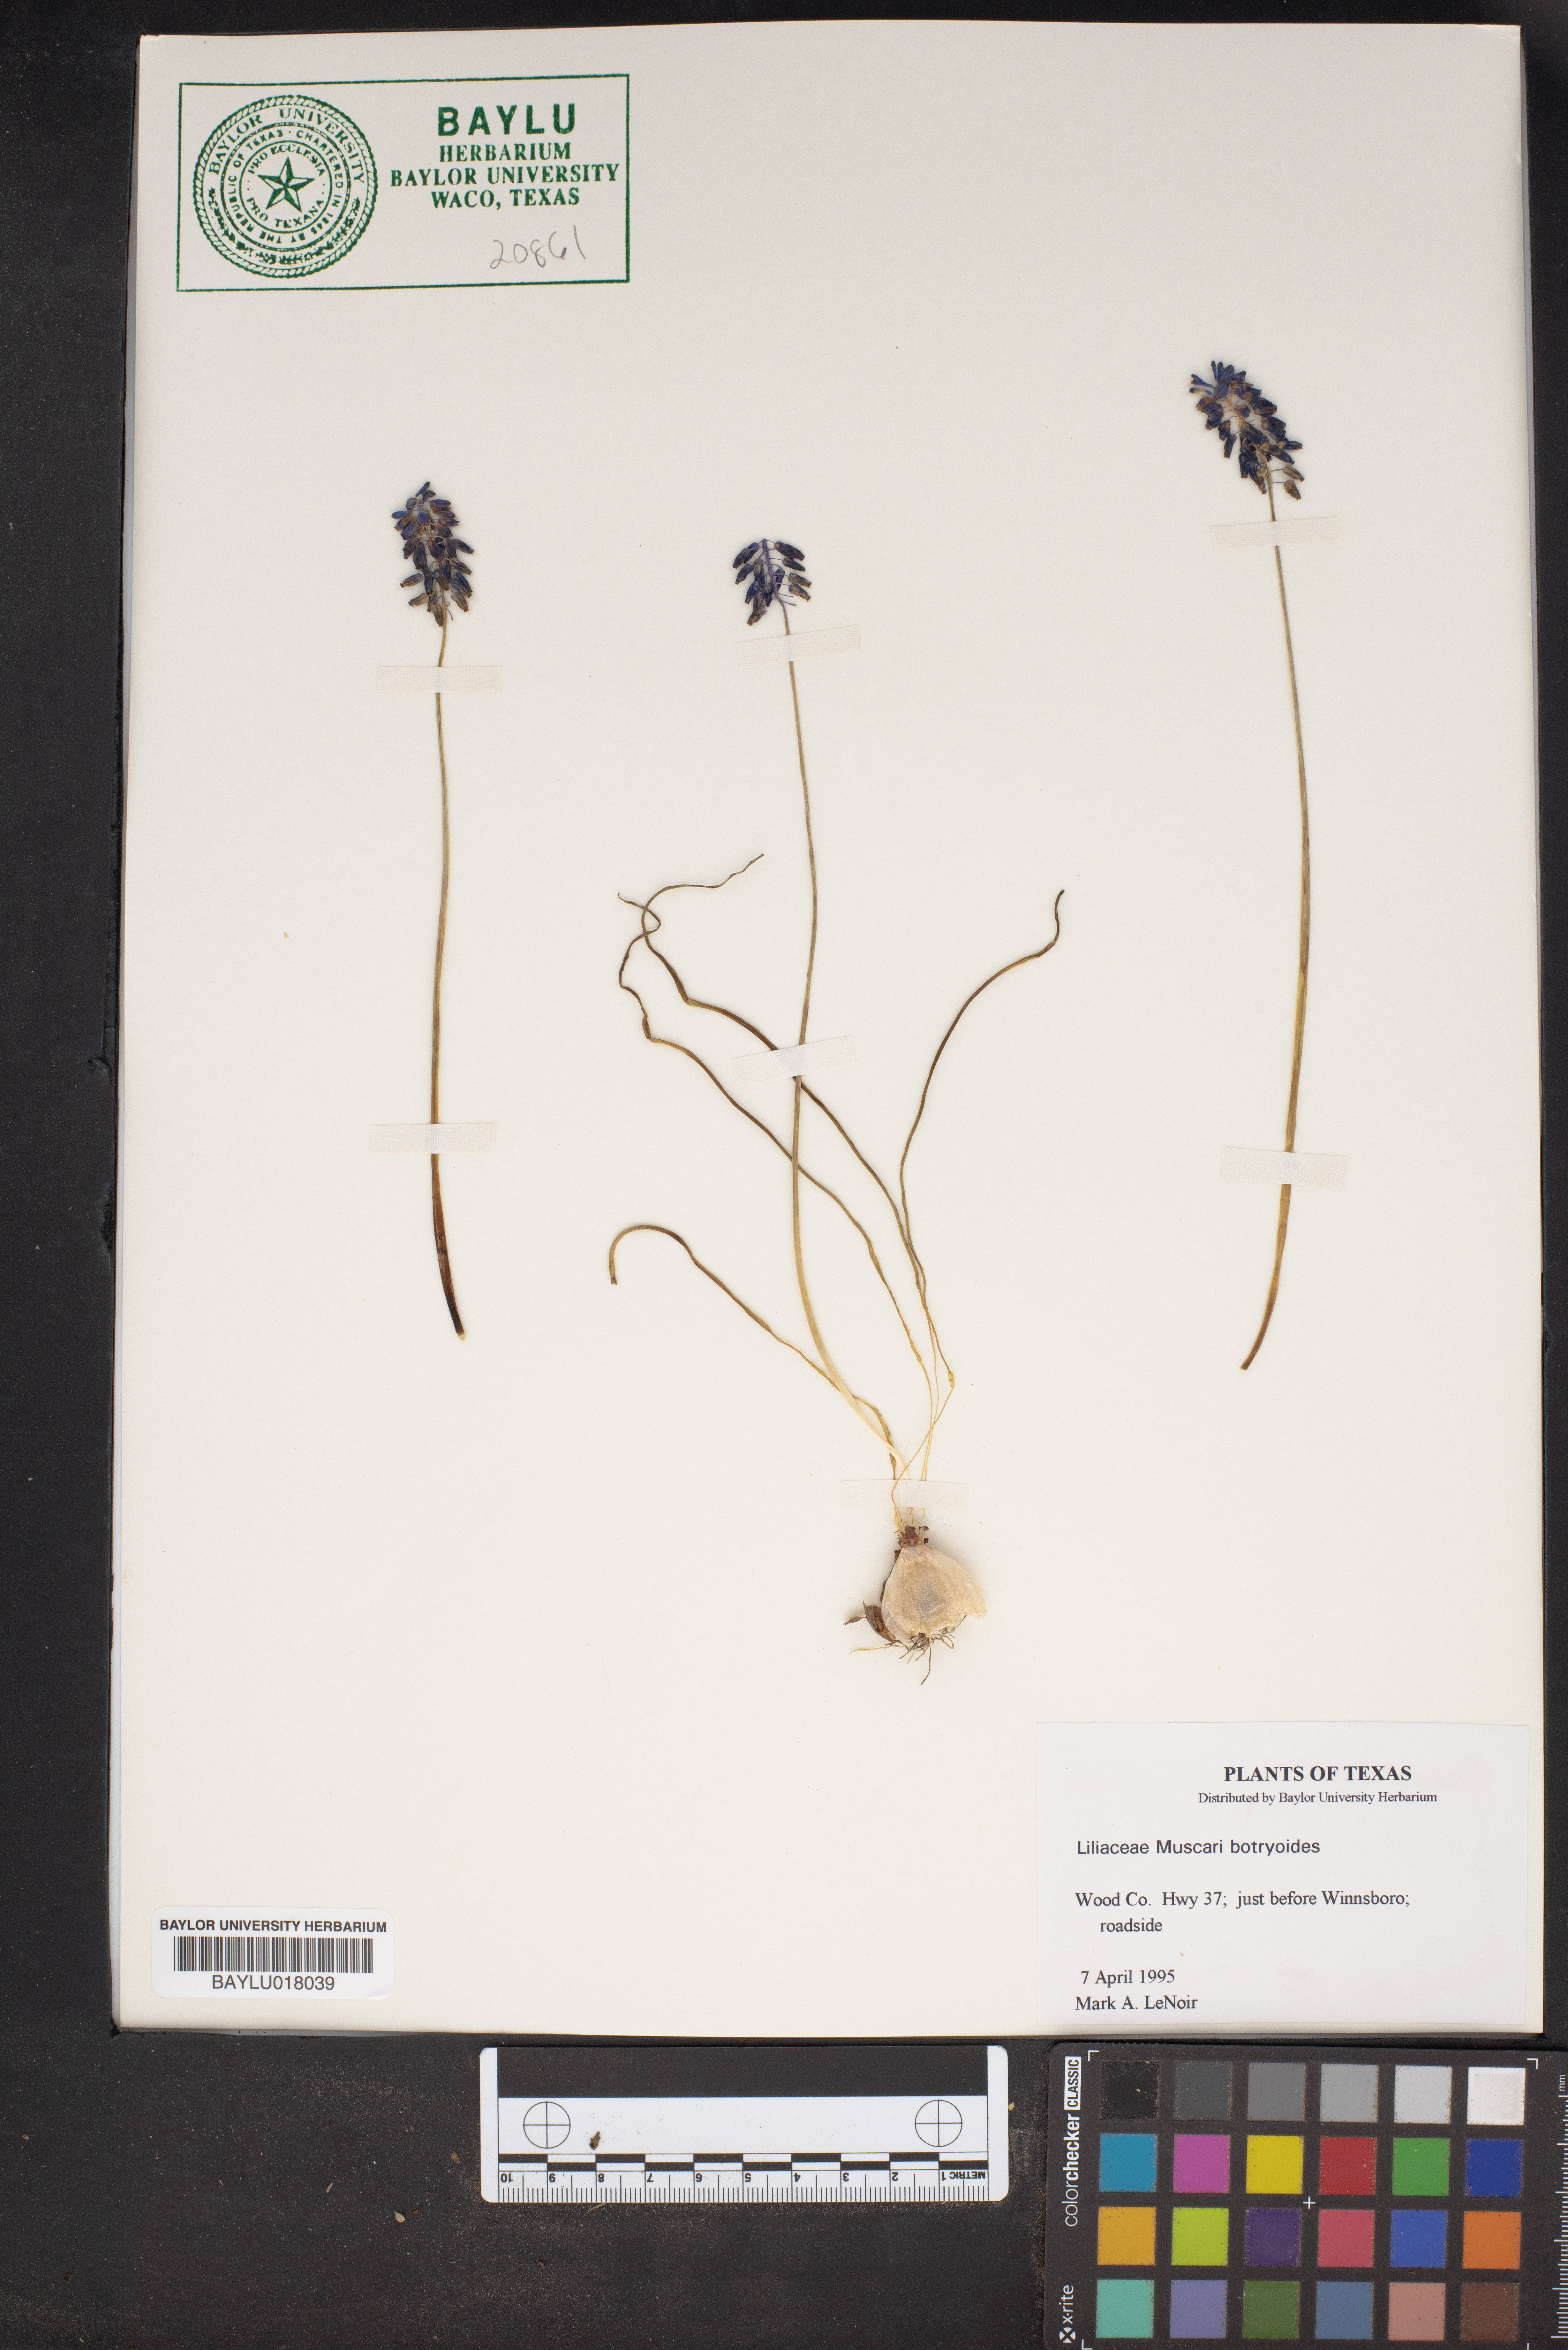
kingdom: Plantae
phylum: Tracheophyta
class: Liliopsida
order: Asparagales
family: Asparagaceae
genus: Muscari
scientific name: Muscari botryoides
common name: Compact grape-hyacinth
